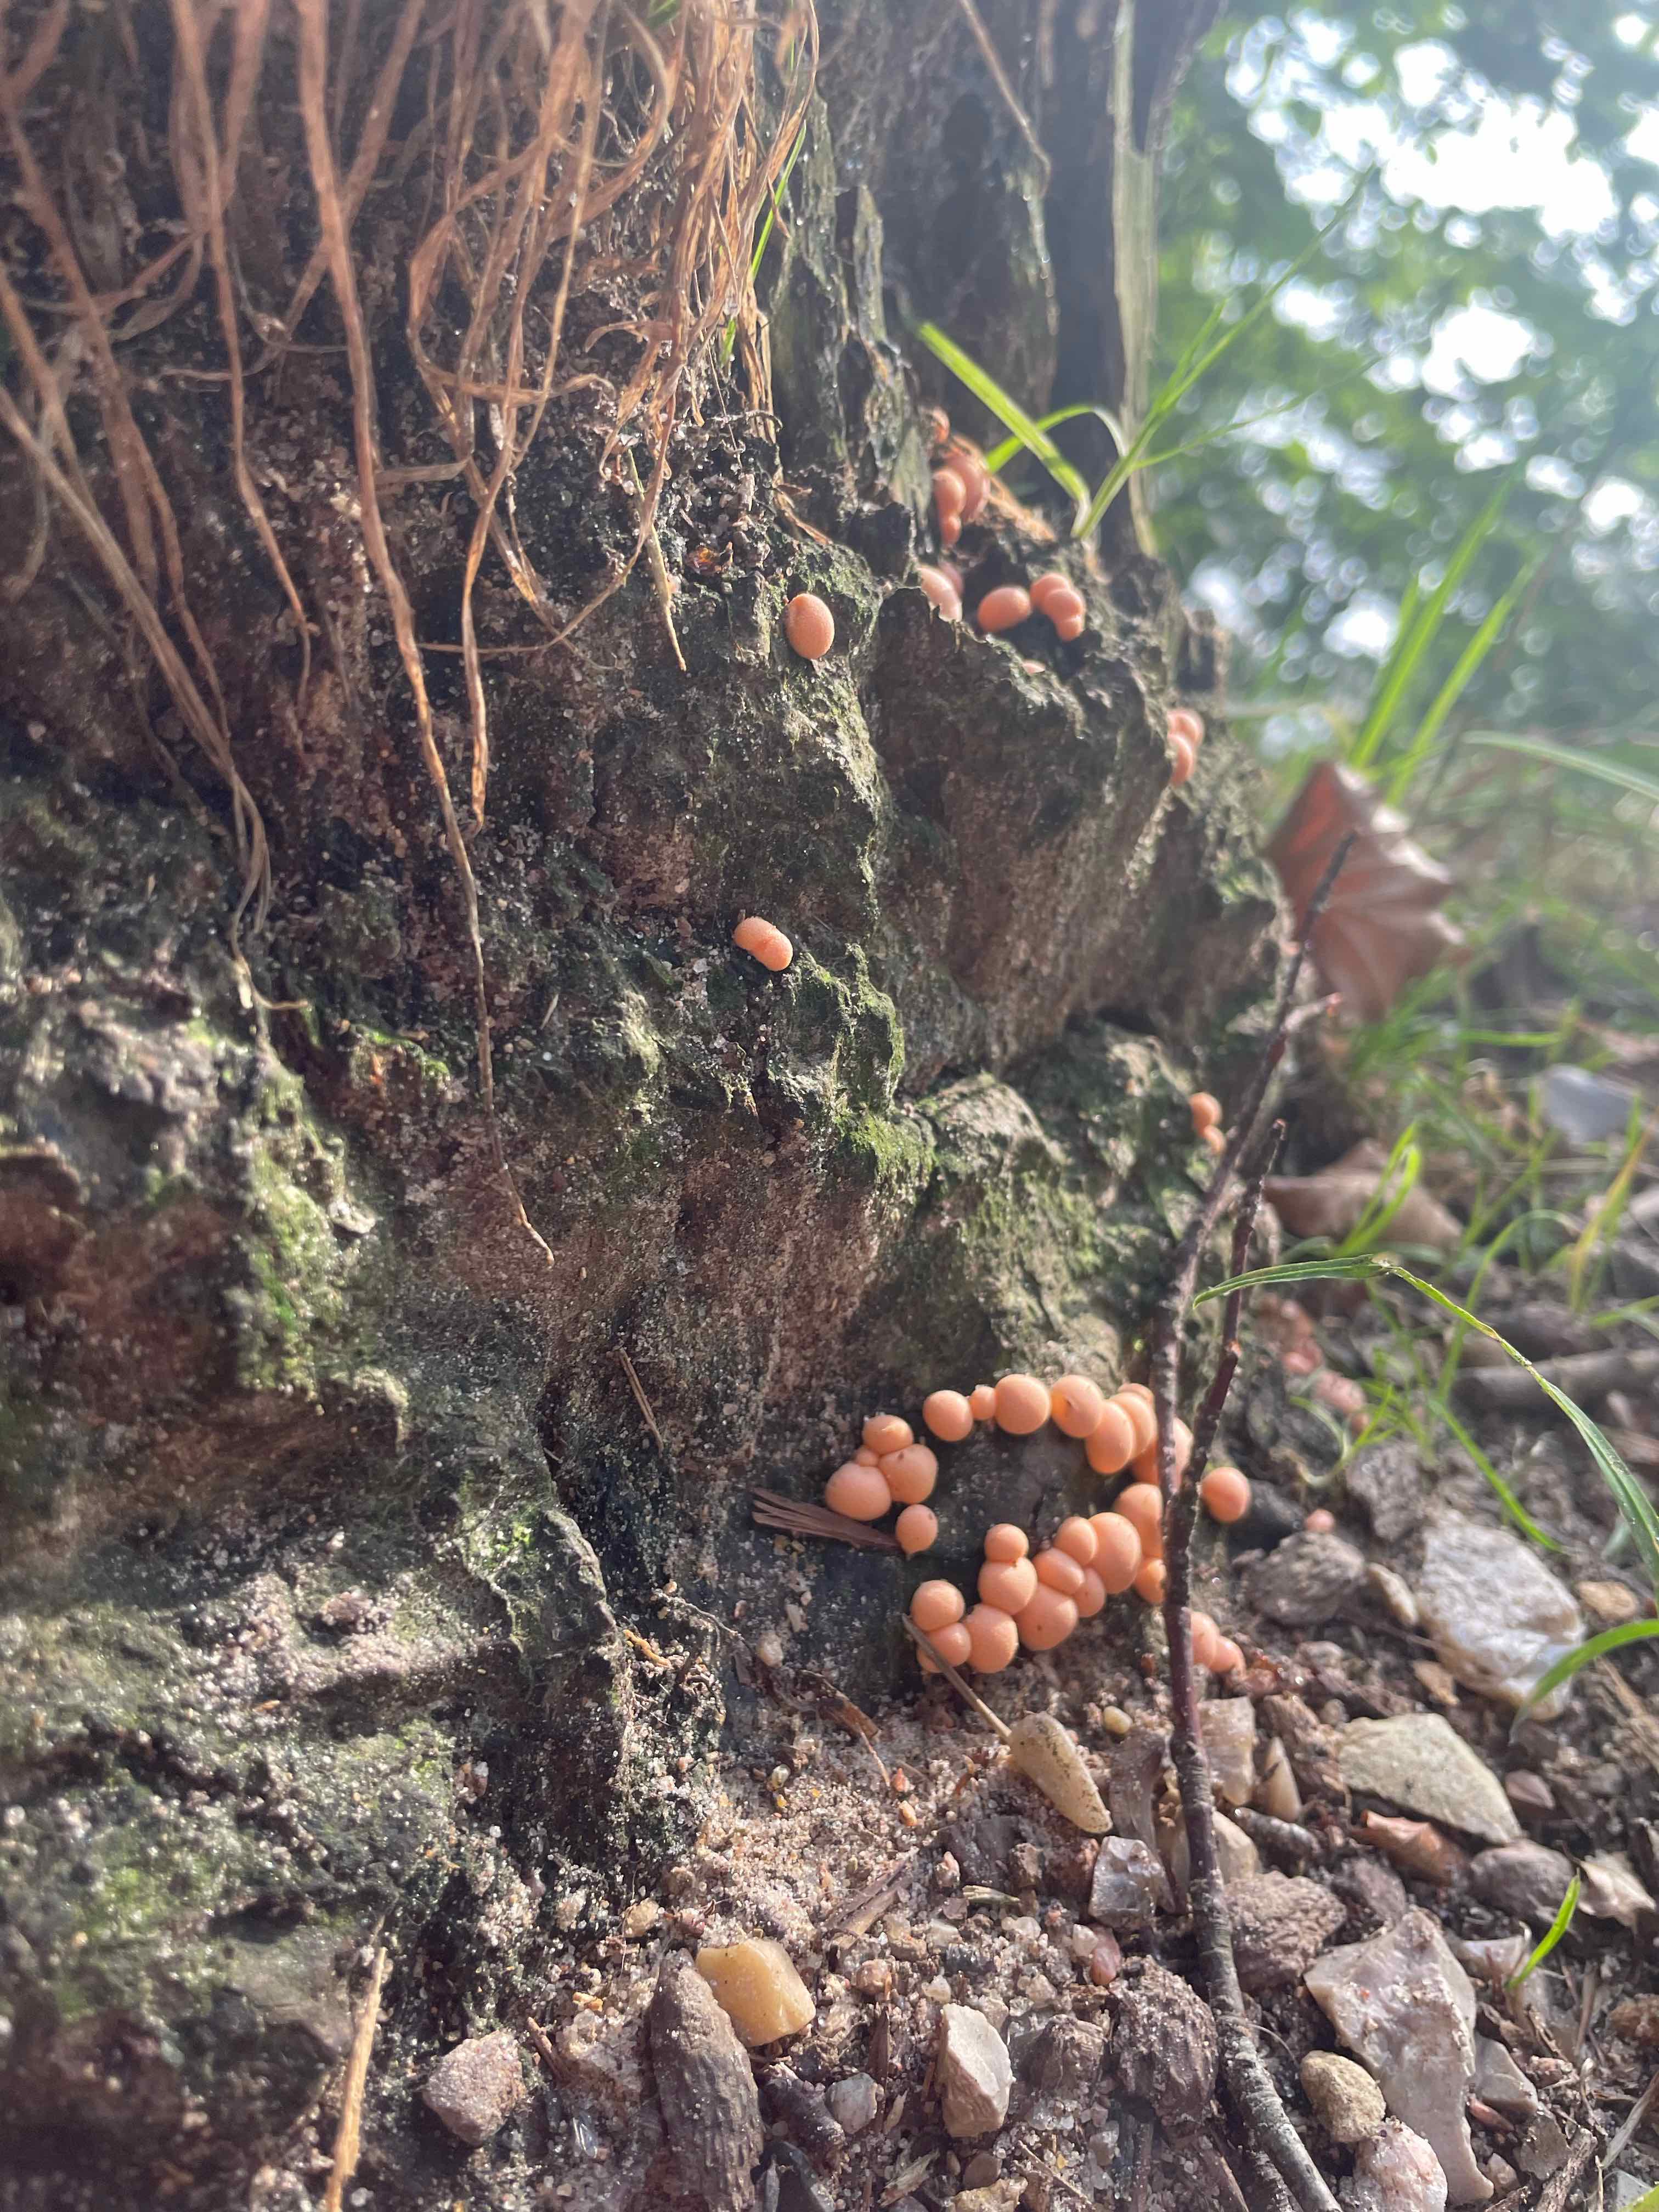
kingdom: Protozoa
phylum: Mycetozoa
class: Myxomycetes
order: Cribrariales
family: Tubiferaceae
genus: Lycogala
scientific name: Lycogala epidendrum
